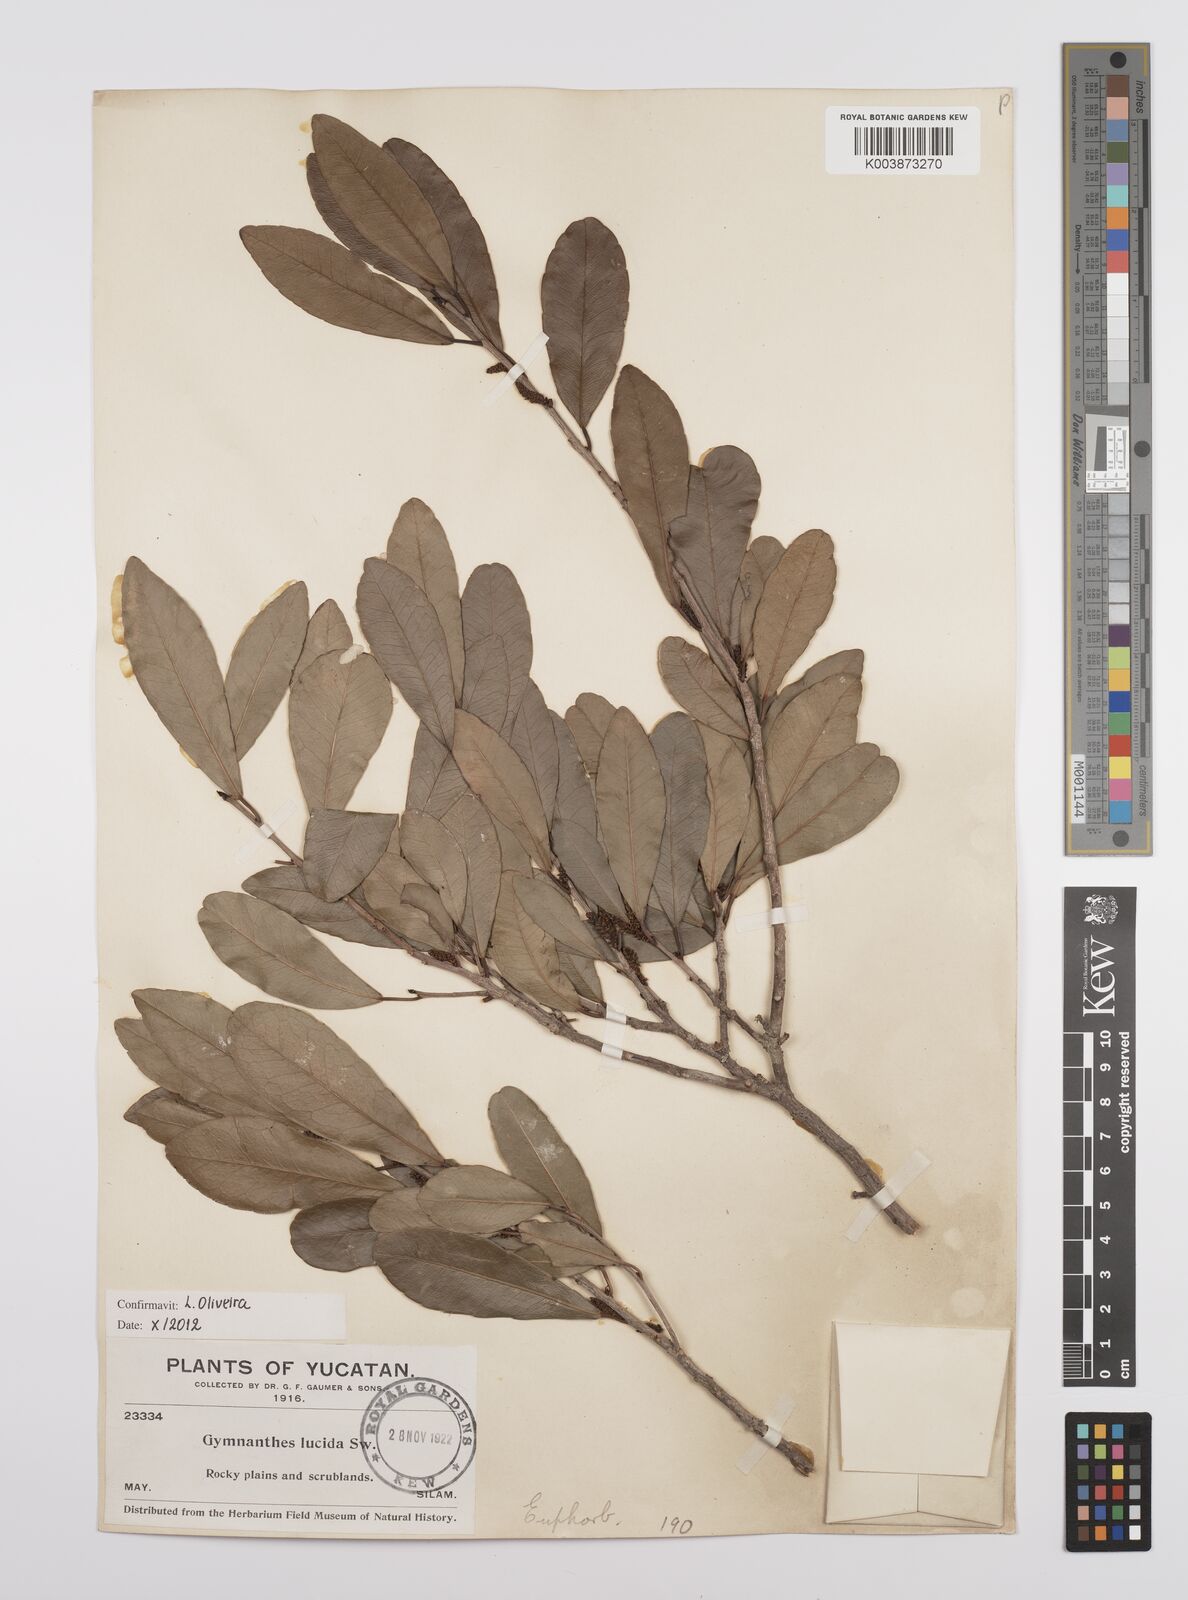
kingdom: Plantae
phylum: Tracheophyta
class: Magnoliopsida
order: Malpighiales
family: Euphorbiaceae
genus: Gymnanthes
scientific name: Gymnanthes lucida
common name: Oysterwood
